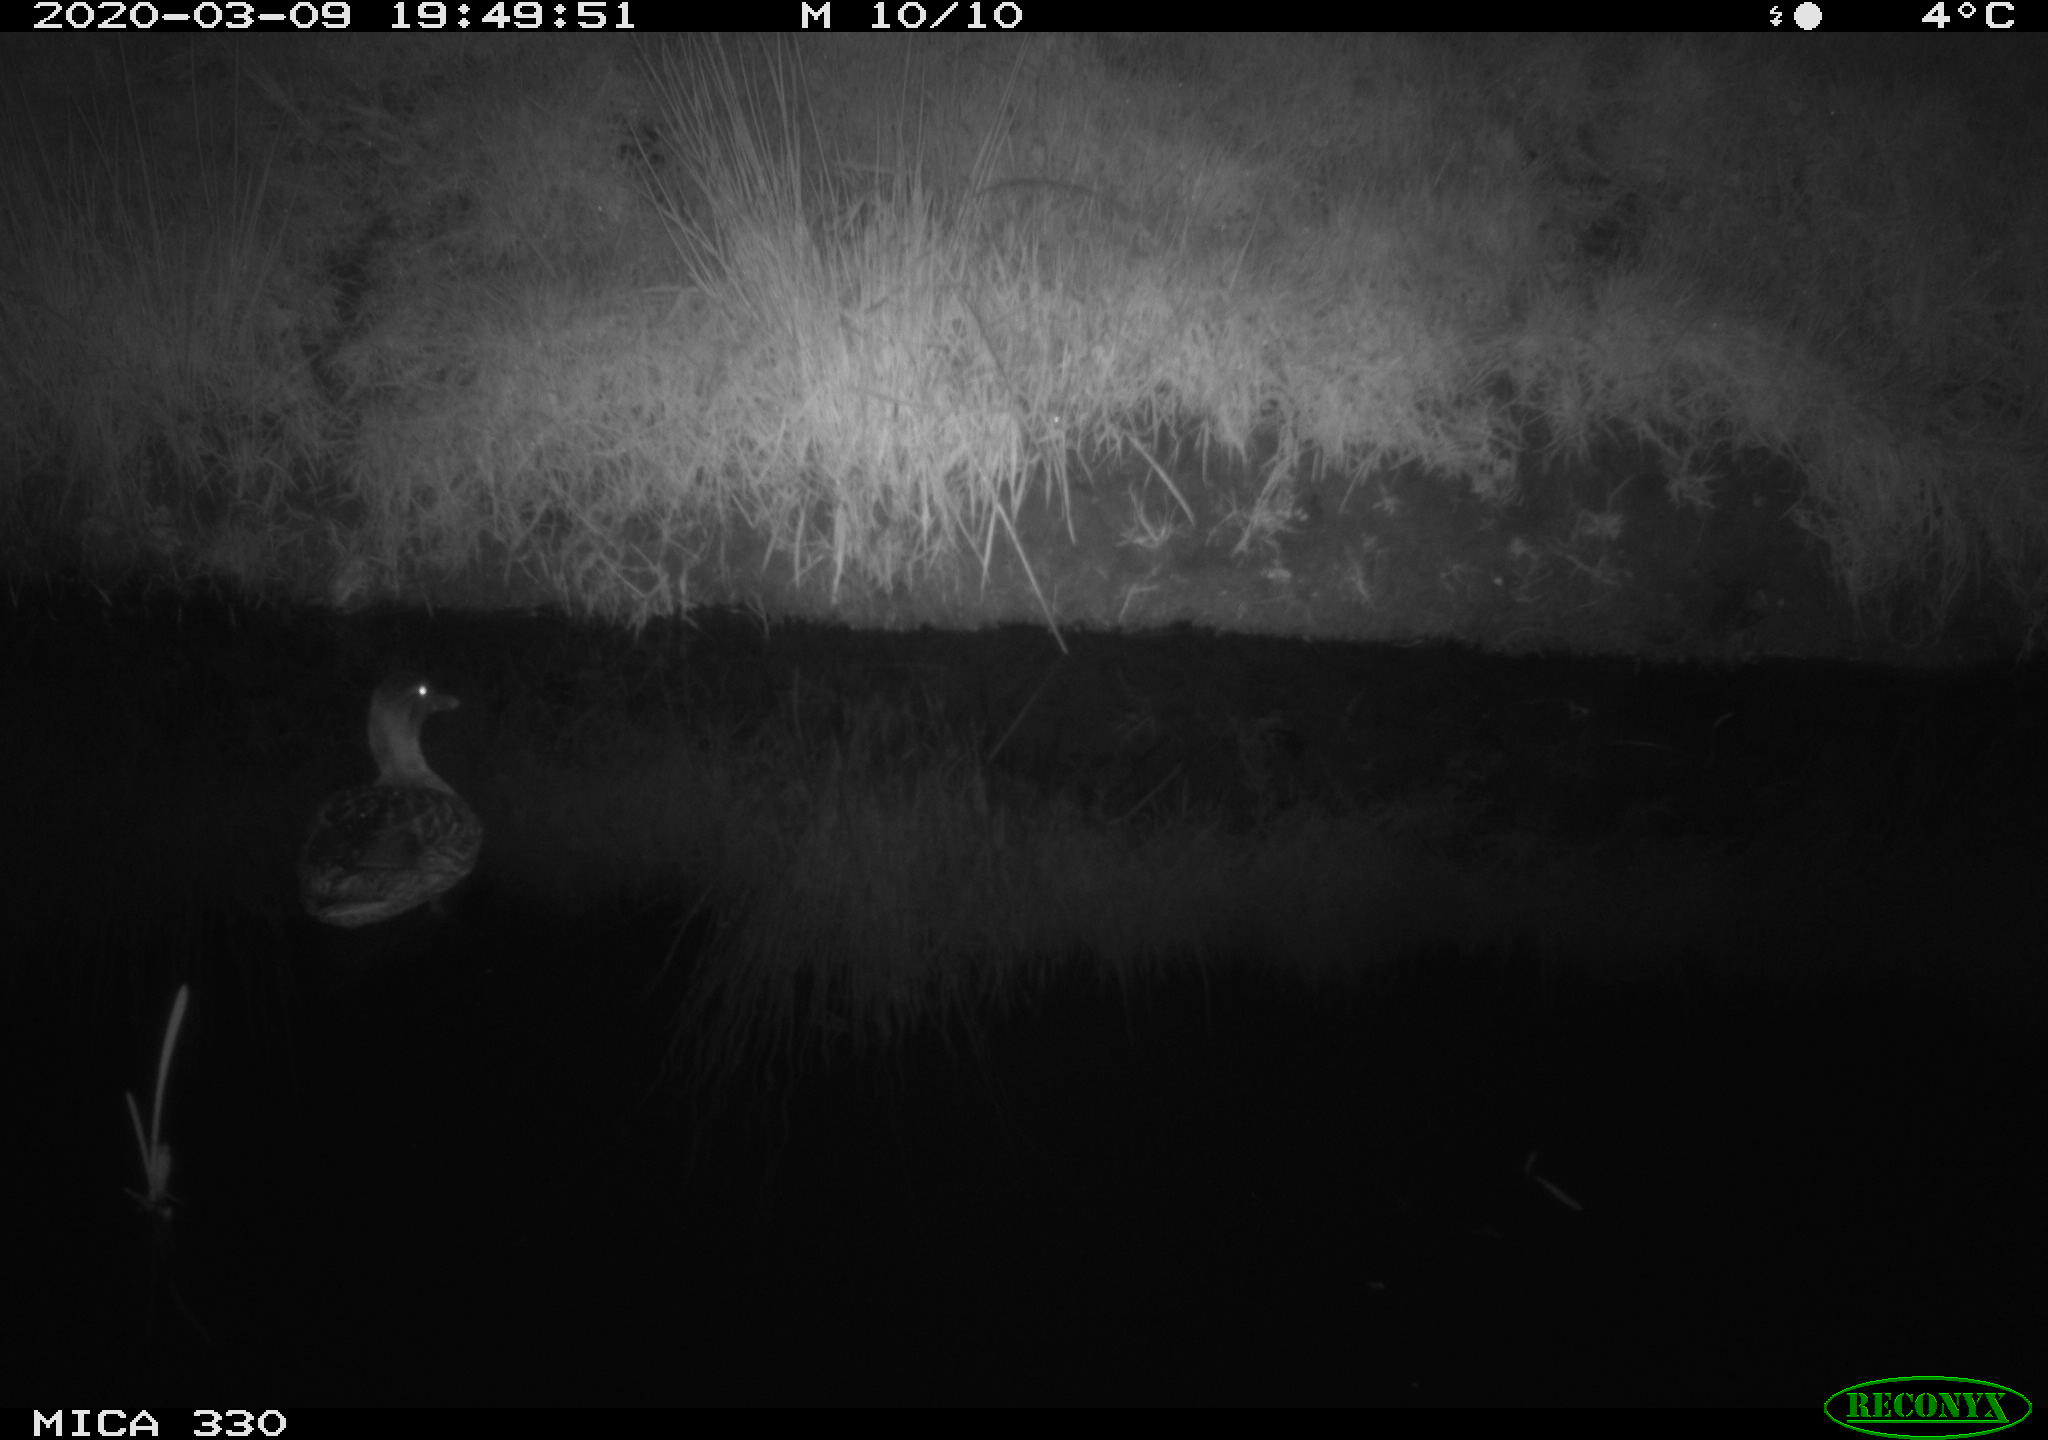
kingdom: Animalia
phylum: Chordata
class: Aves
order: Anseriformes
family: Anatidae
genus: Anas
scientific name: Anas platyrhynchos
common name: Mallard
